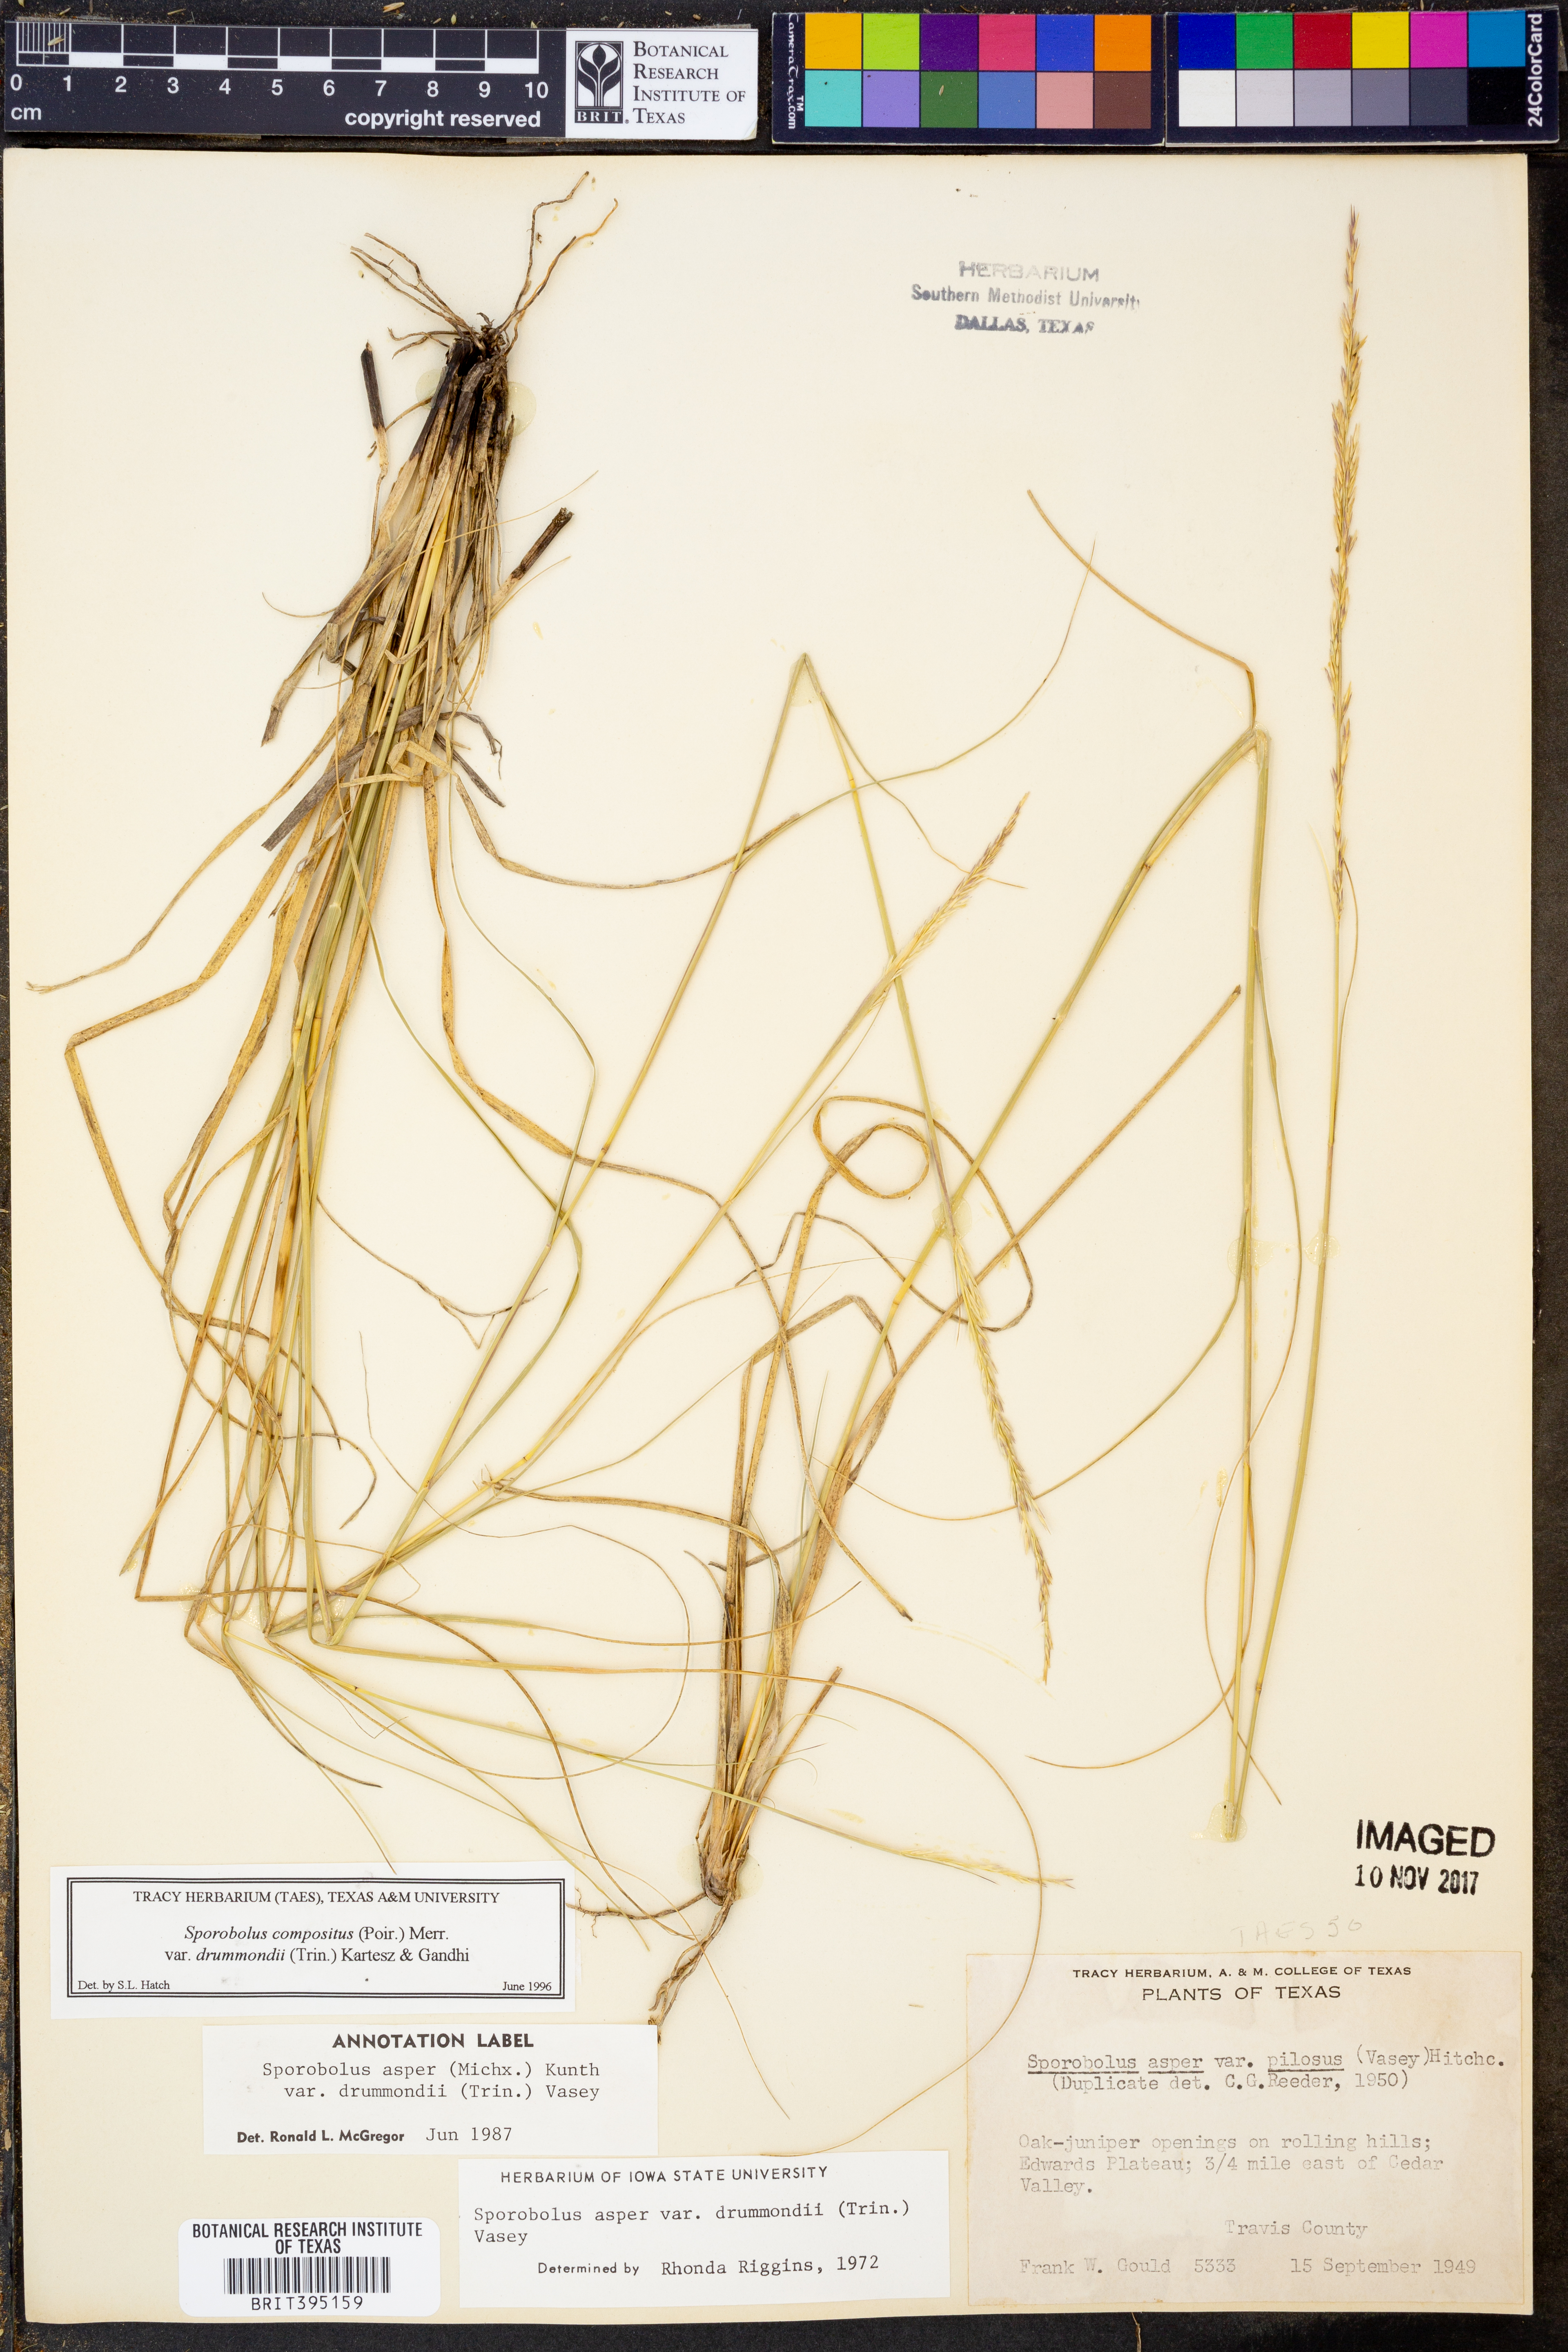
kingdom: Plantae
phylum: Tracheophyta
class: Liliopsida
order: Poales
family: Poaceae
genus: Sporobolus
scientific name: Sporobolus compositus
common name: Rough dropseed
